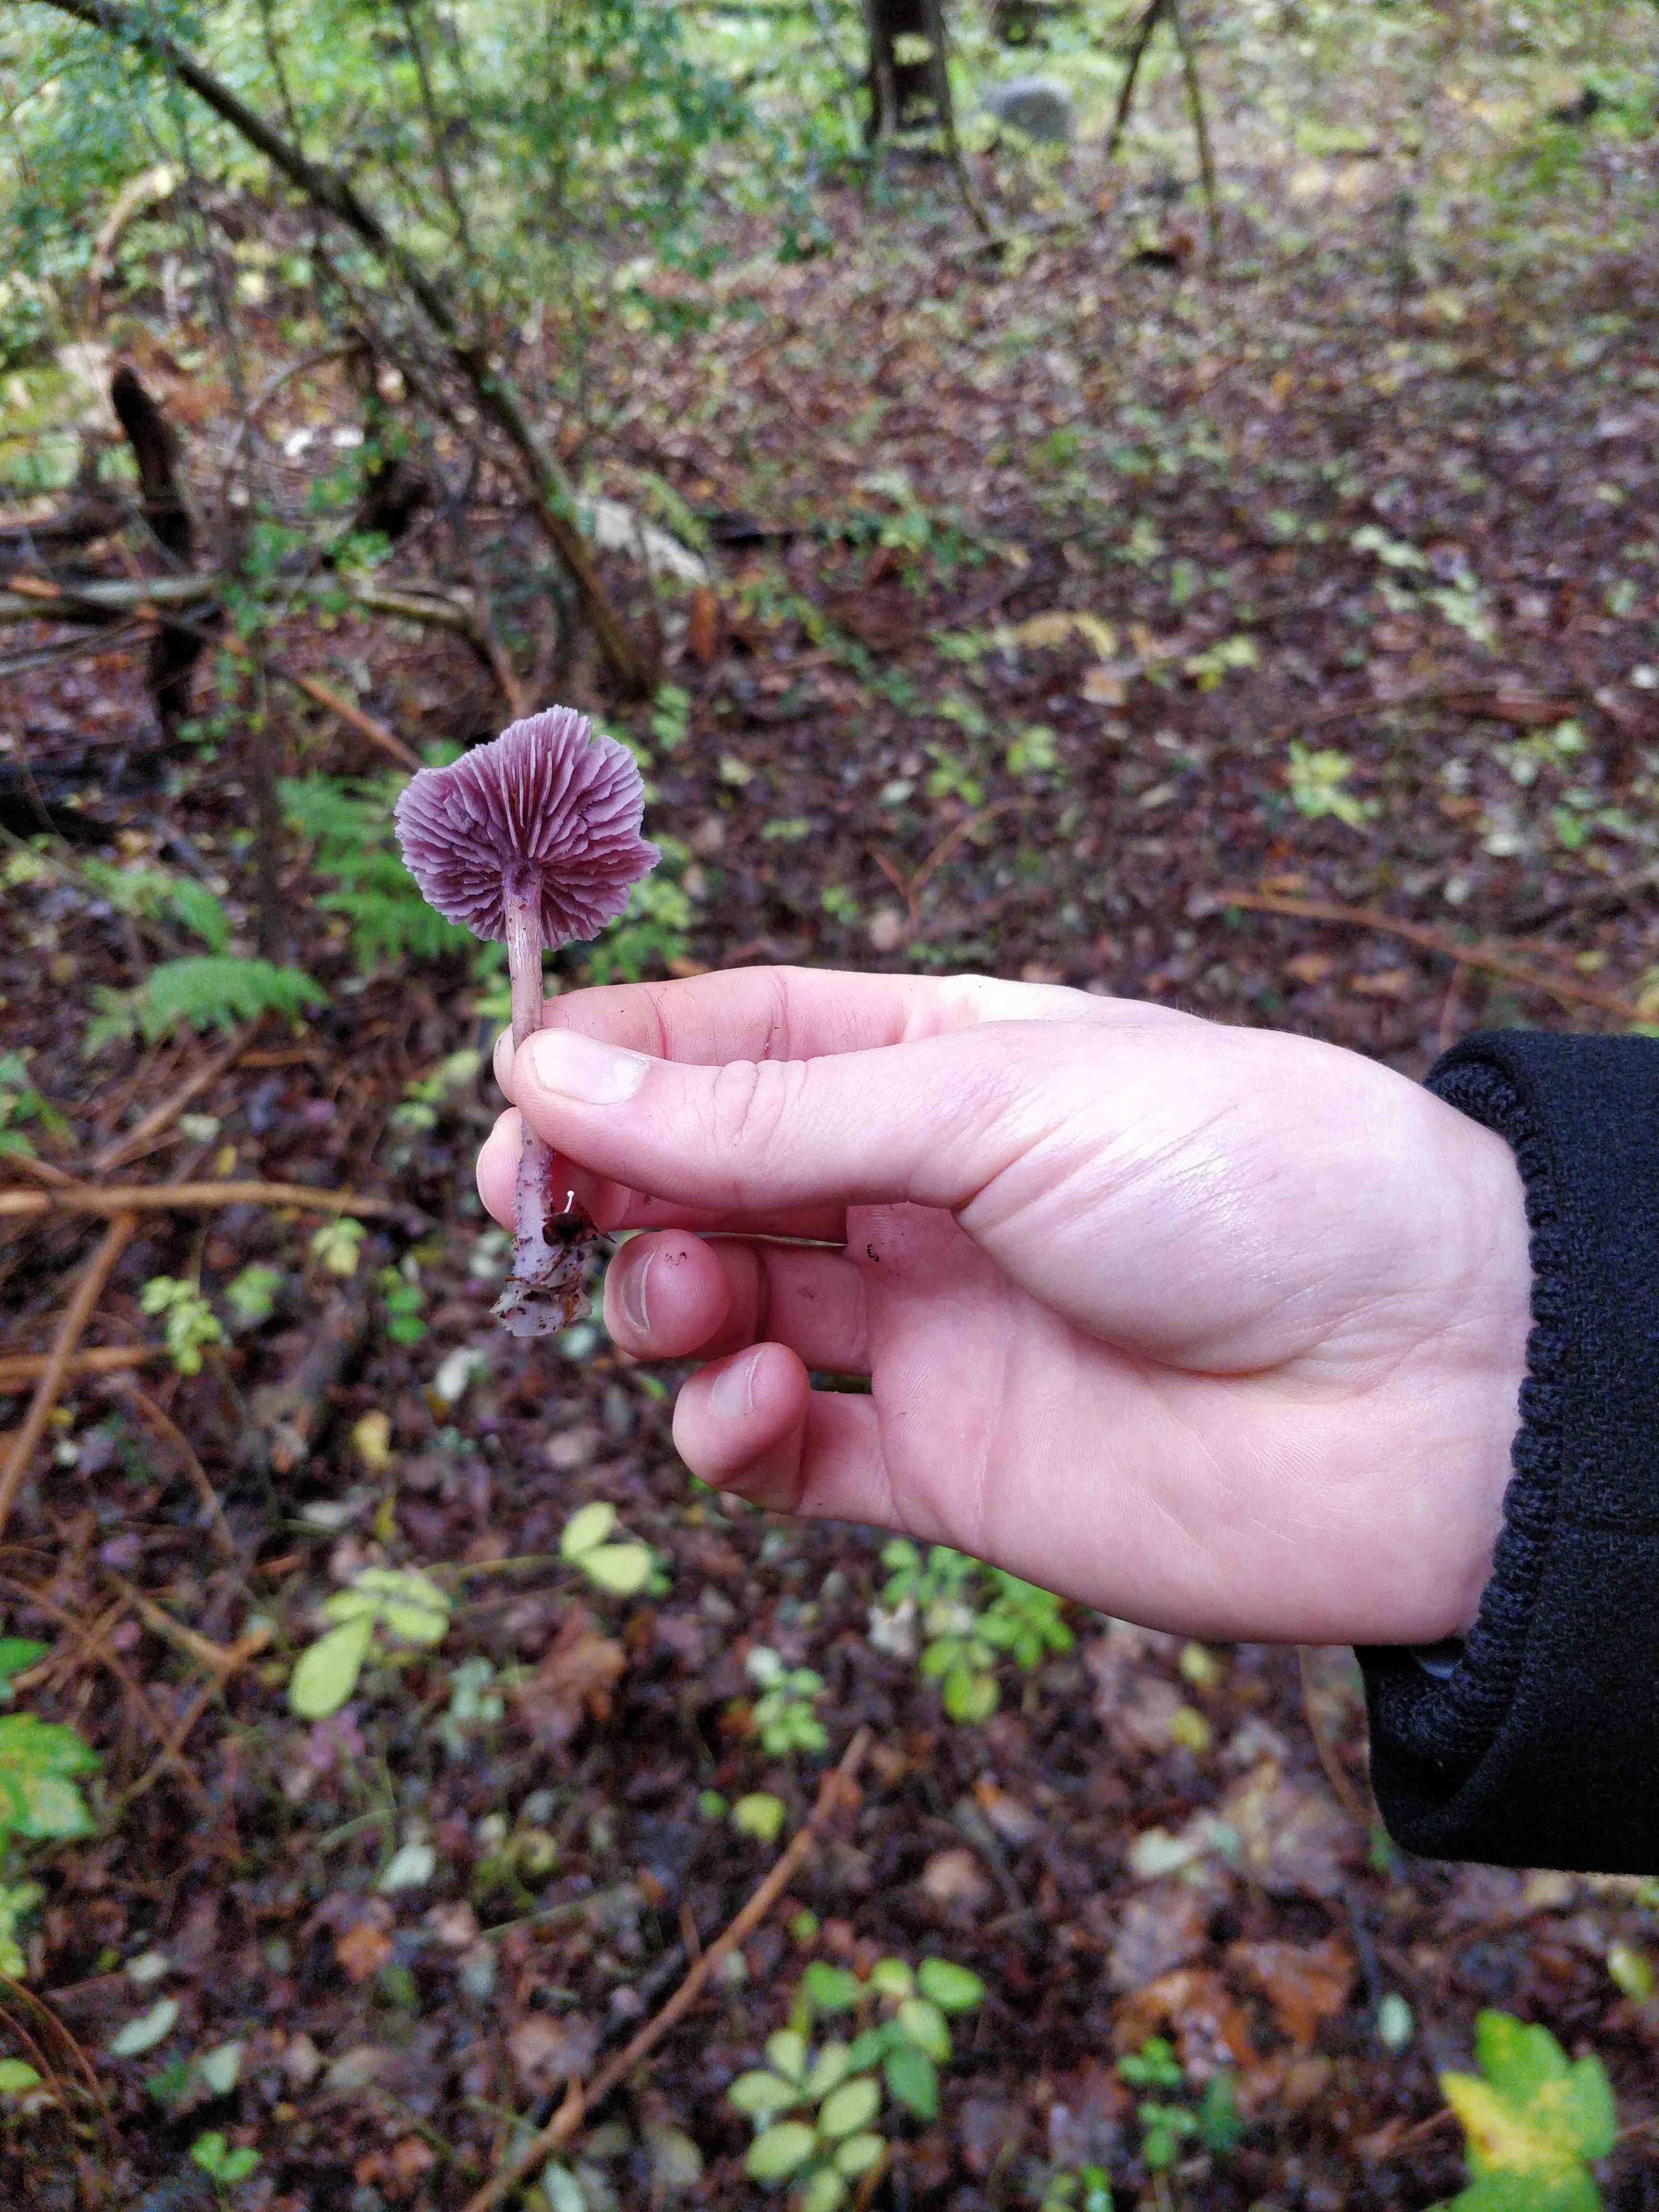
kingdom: Fungi
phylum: Basidiomycota
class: Agaricomycetes
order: Agaricales
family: Hydnangiaceae
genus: Laccaria
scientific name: Laccaria amethystina
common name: violet ametysthat
